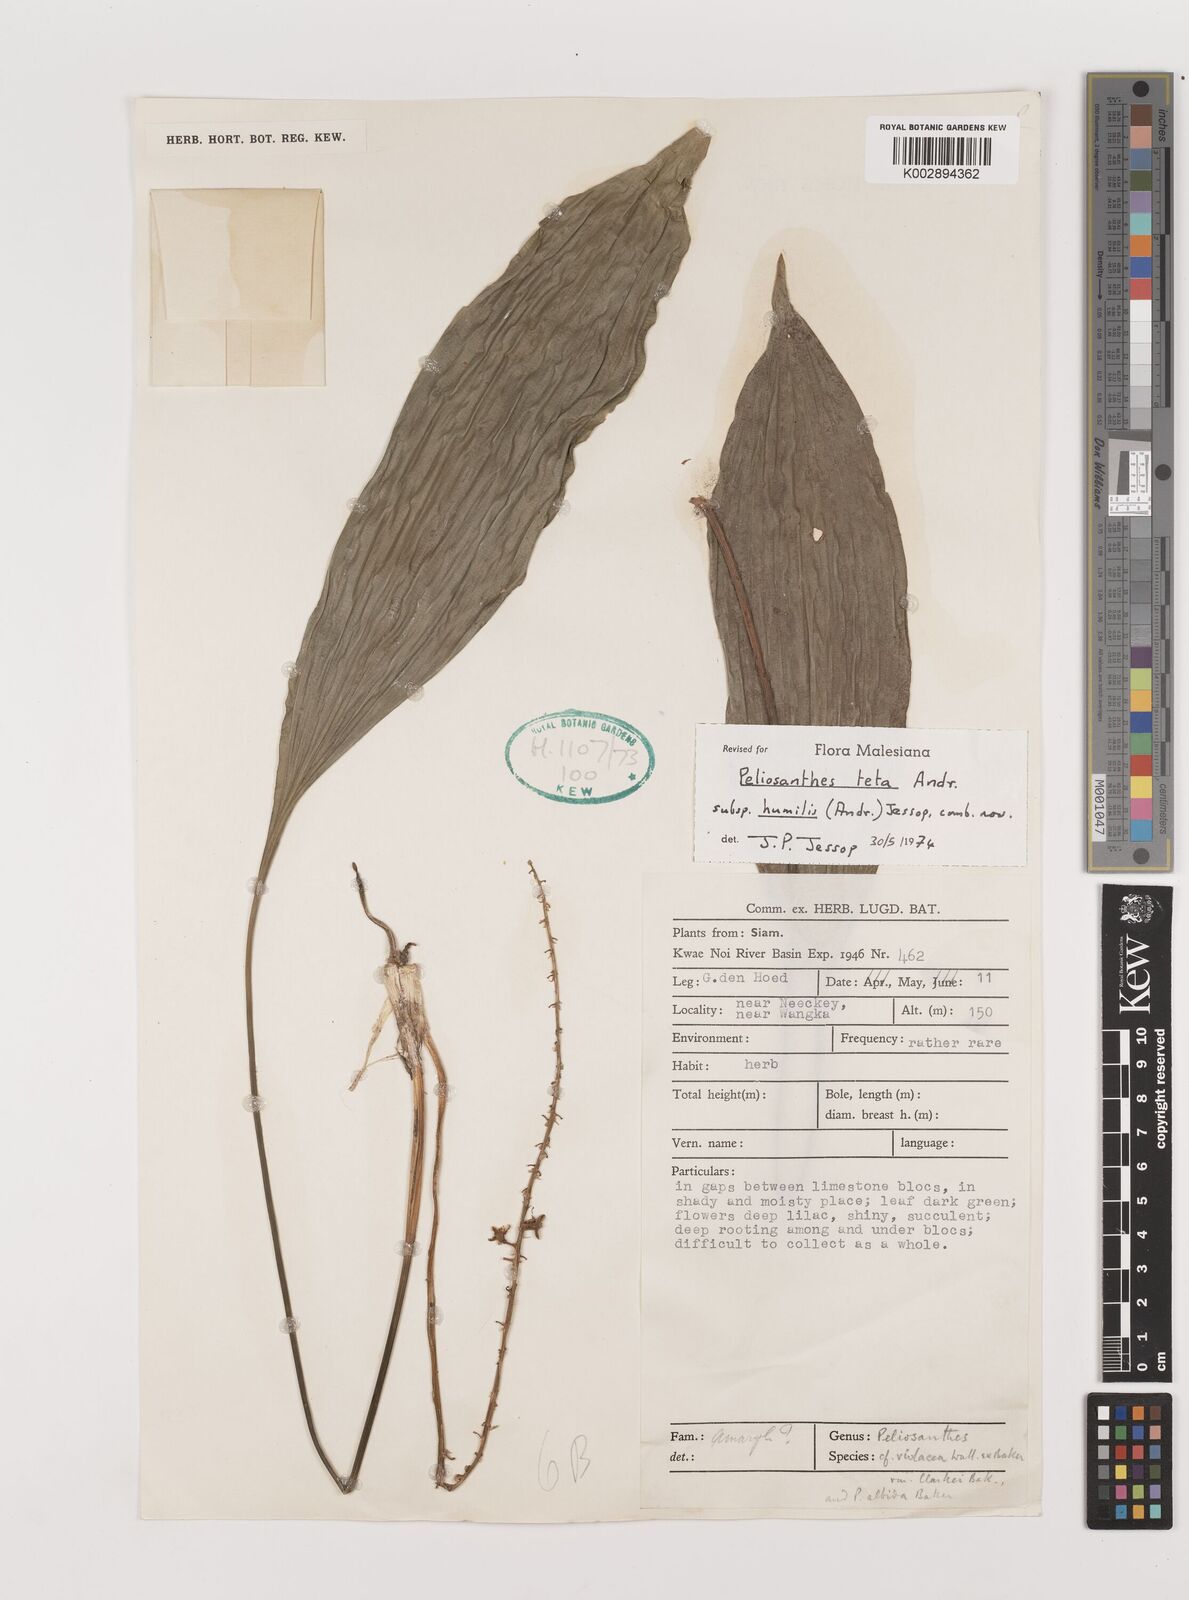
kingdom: Plantae
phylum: Tracheophyta
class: Liliopsida
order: Asparagales
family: Asparagaceae
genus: Peliosanthes
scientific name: Peliosanthes teta
